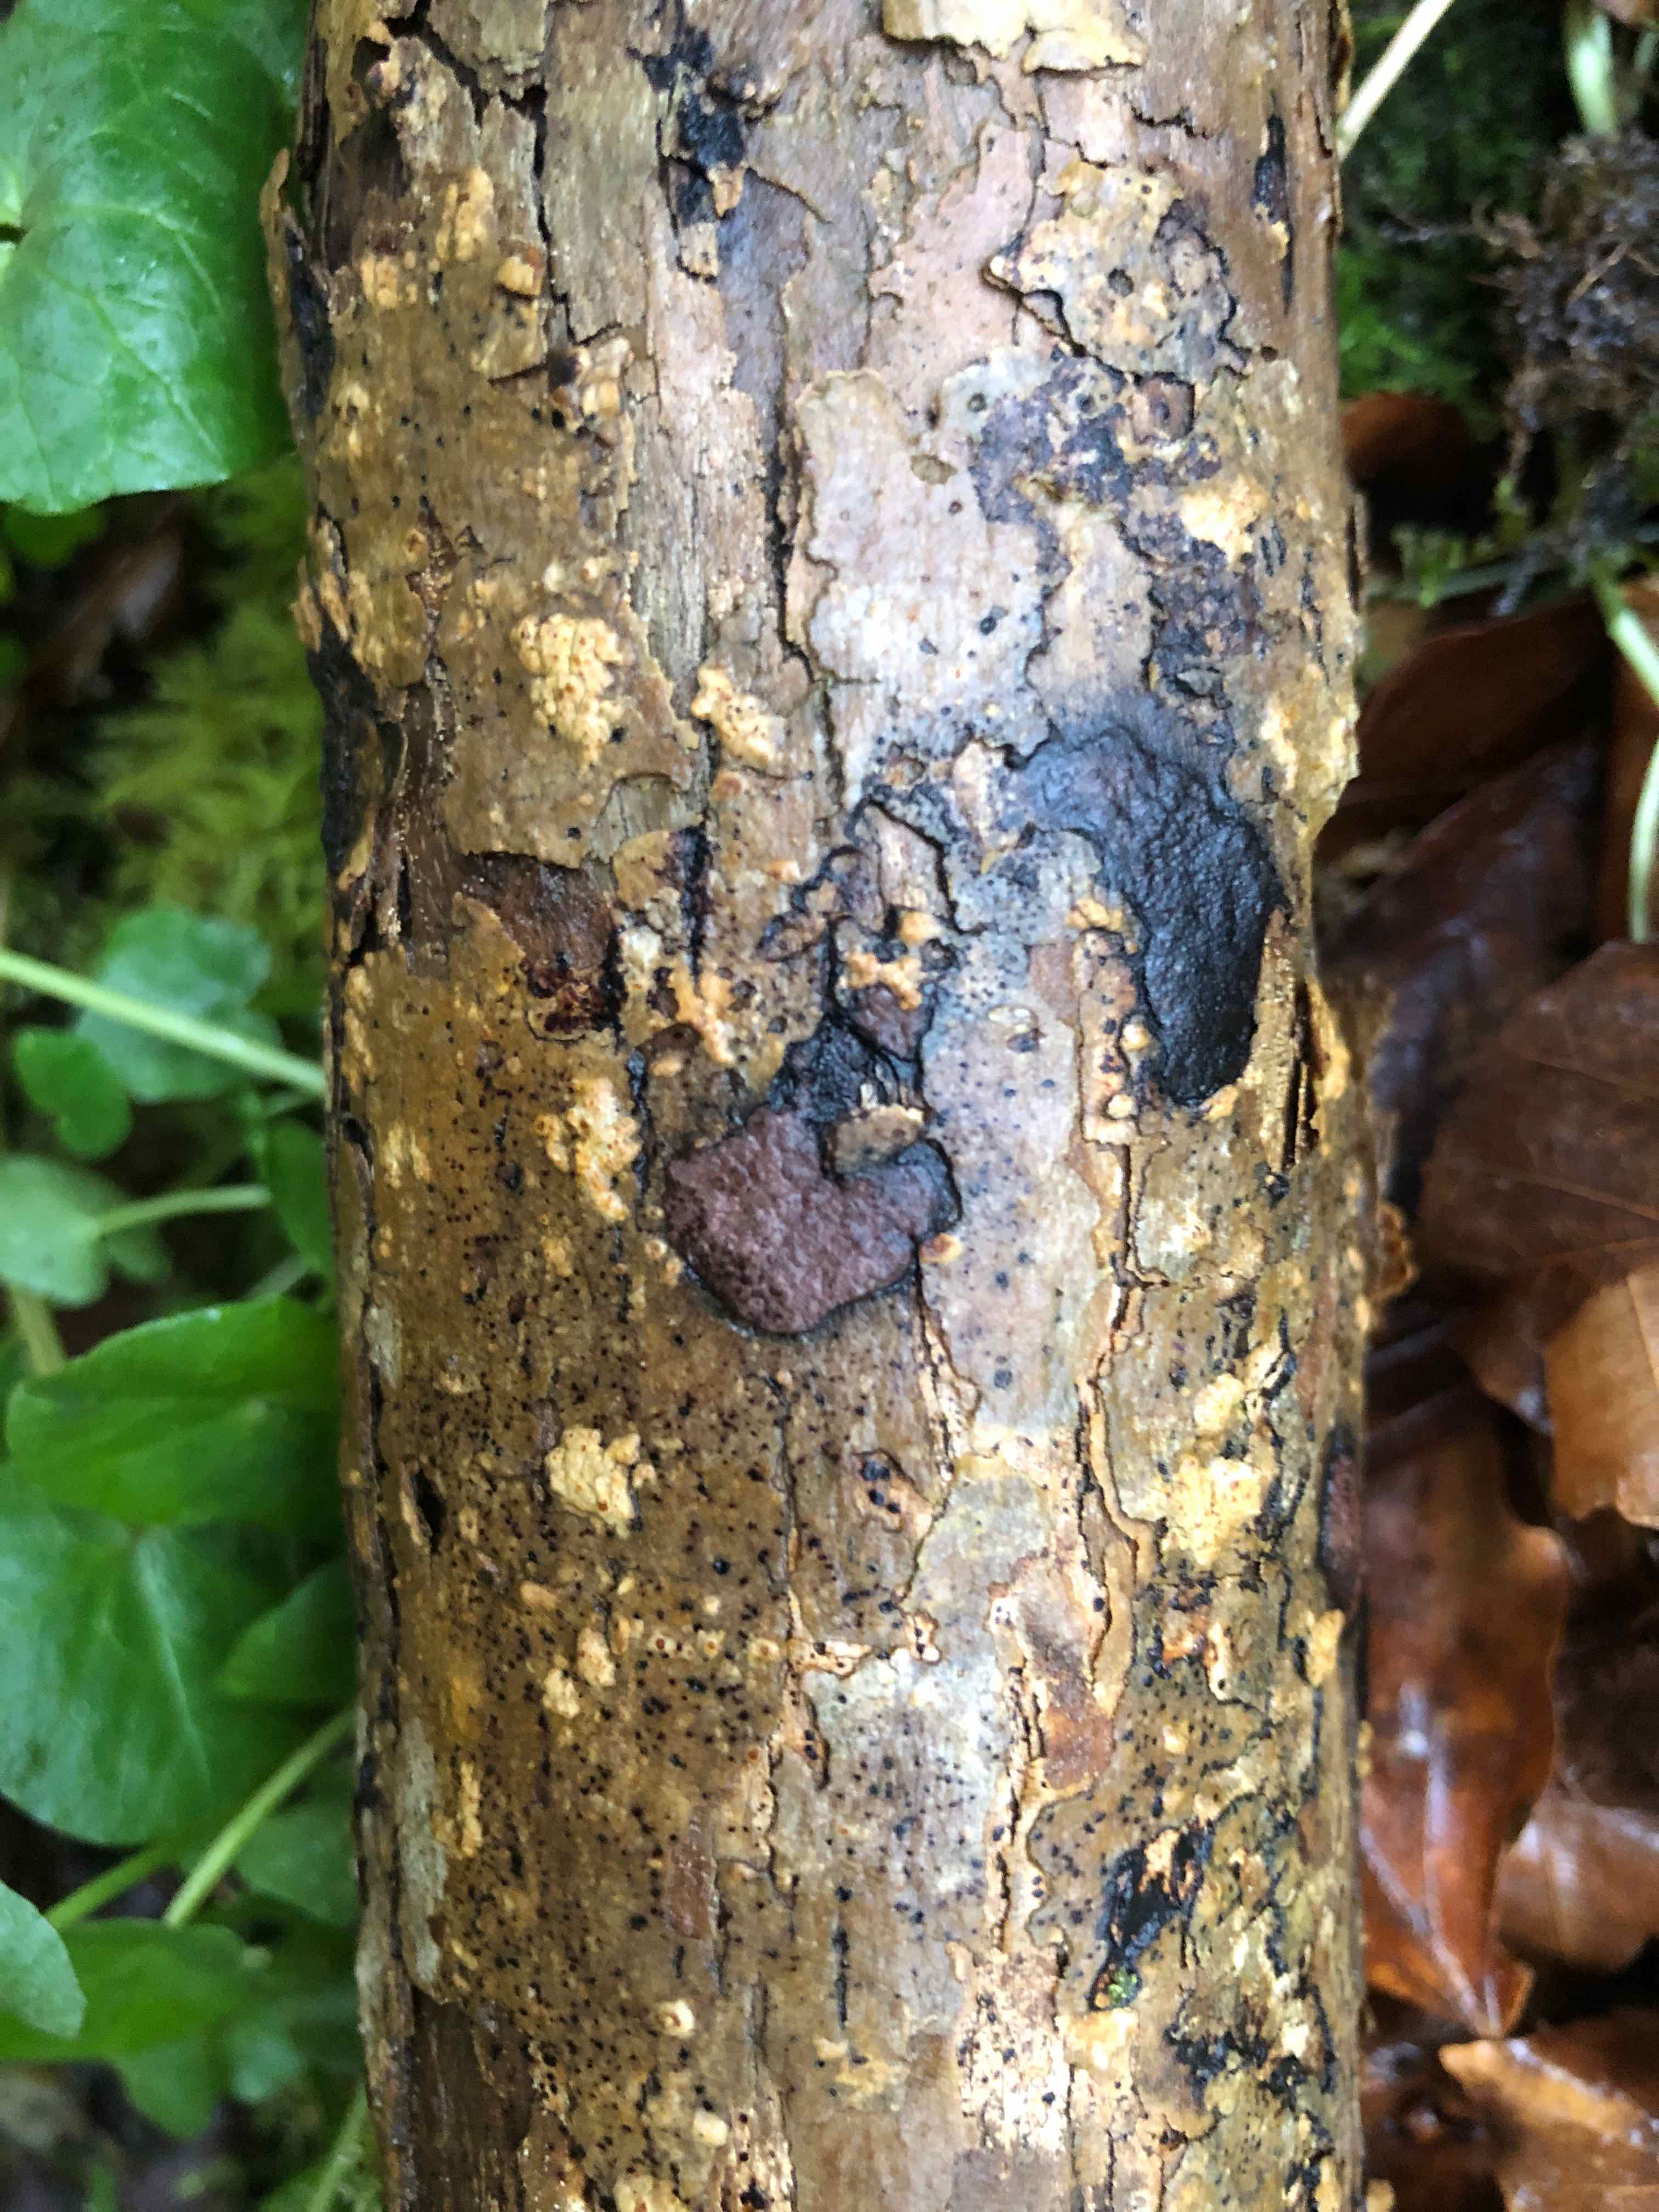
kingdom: Fungi
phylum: Ascomycota
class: Sordariomycetes
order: Xylariales
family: Hypoxylaceae
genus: Hypoxylon
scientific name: Hypoxylon petriniae
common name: nedsænket kulbær
